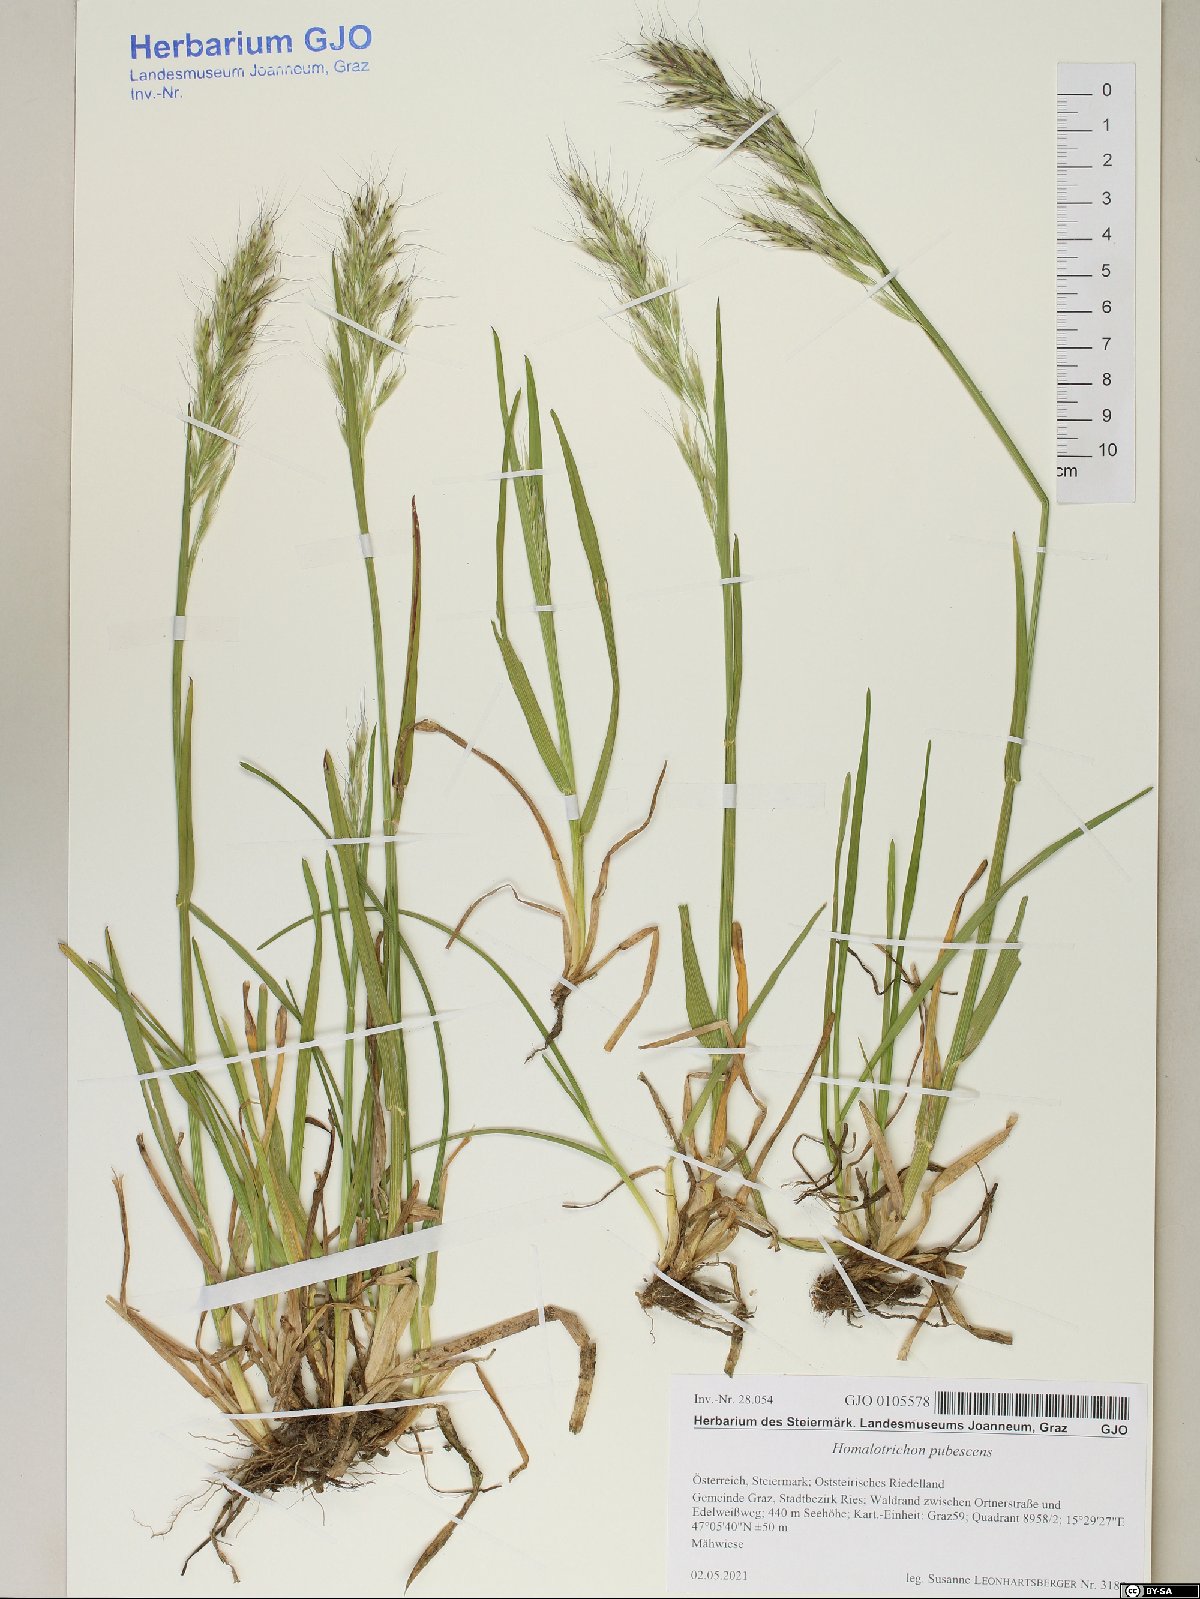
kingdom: Plantae
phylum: Tracheophyta
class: Liliopsida
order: Poales
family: Poaceae
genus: Avenula
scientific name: Avenula pubescens
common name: Downy alpine oatgrass
